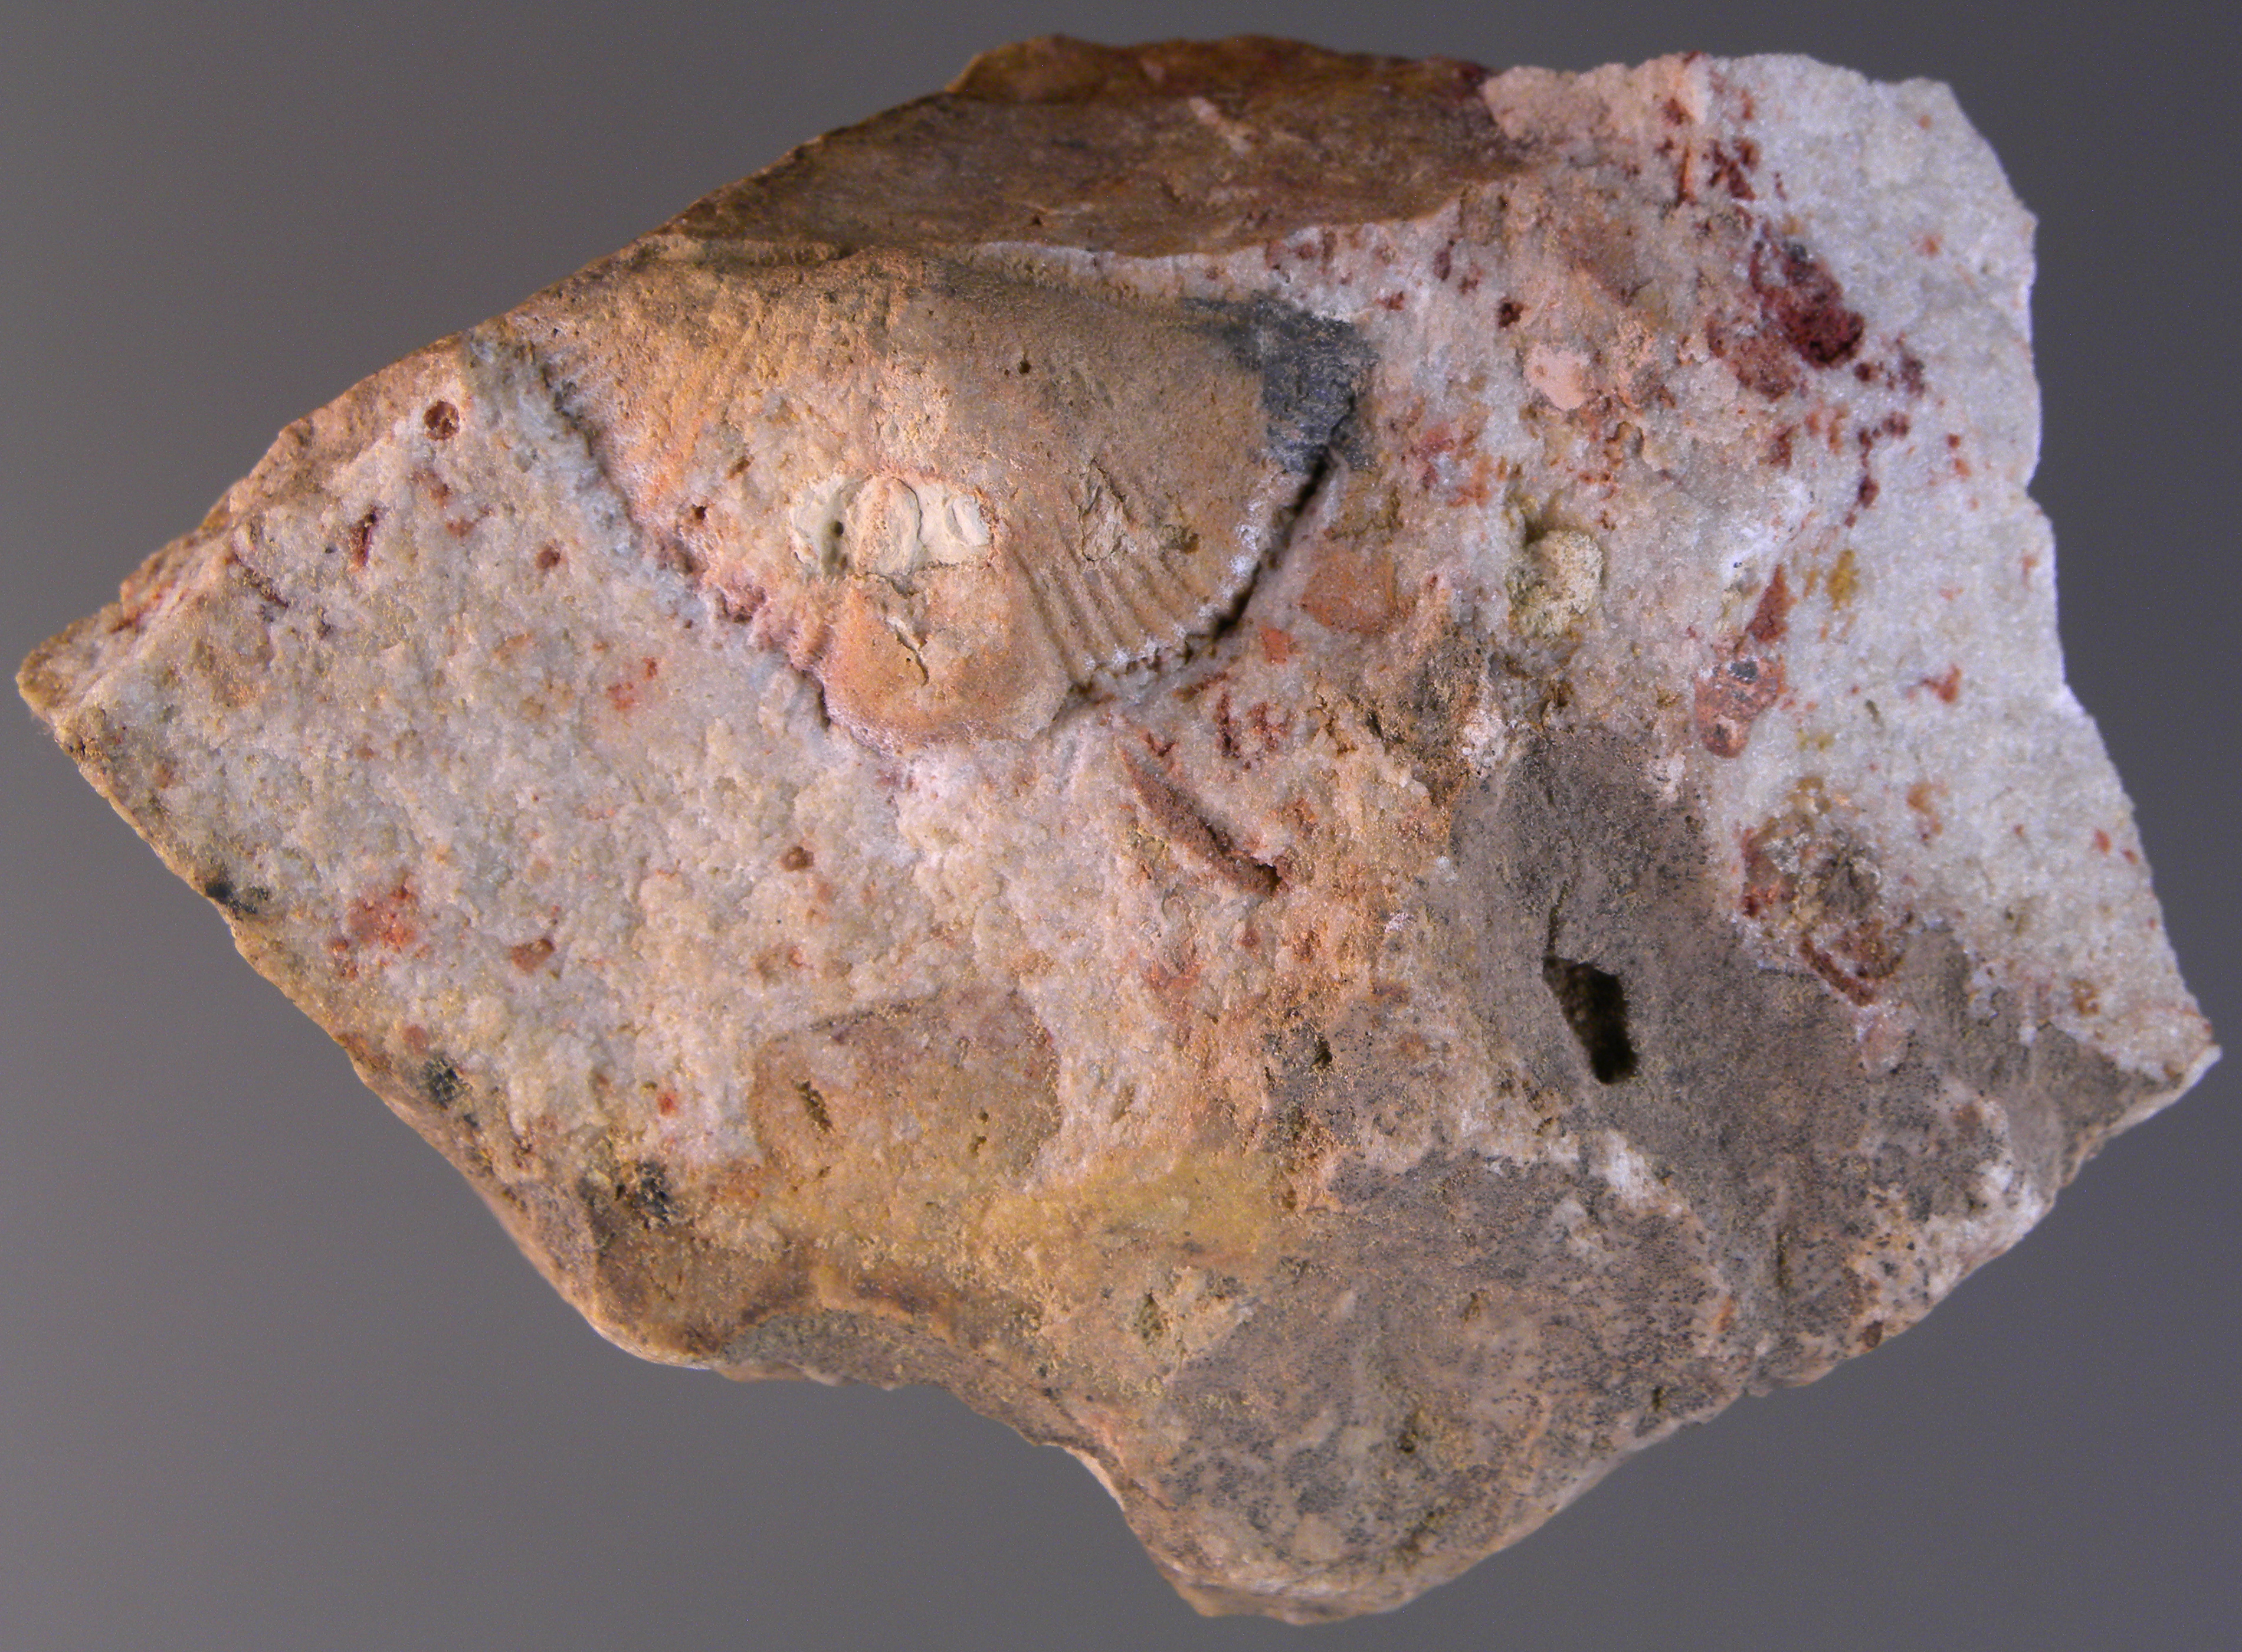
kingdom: Animalia
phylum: Brachiopoda
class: Rhynchonellata
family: Delthyrididae
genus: Brachyspirifer
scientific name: Brachyspirifer
